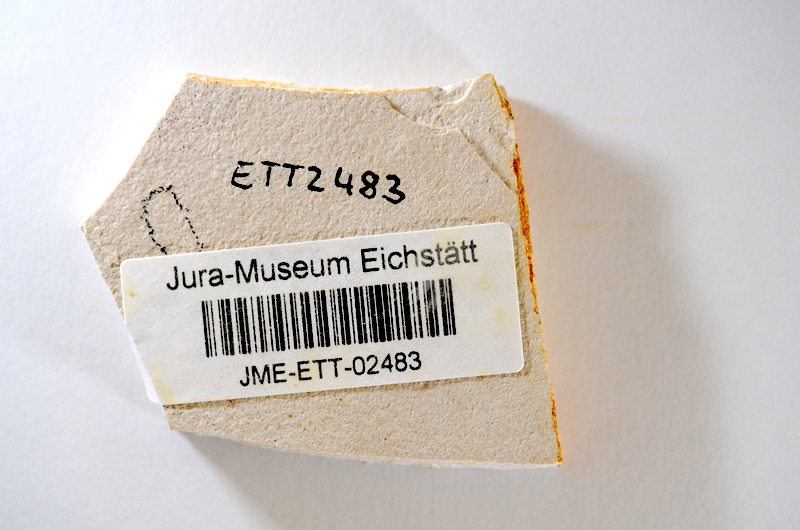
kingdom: Animalia
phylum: Chordata
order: Salmoniformes
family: Orthogonikleithridae
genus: Orthogonikleithrus
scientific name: Orthogonikleithrus hoelli
